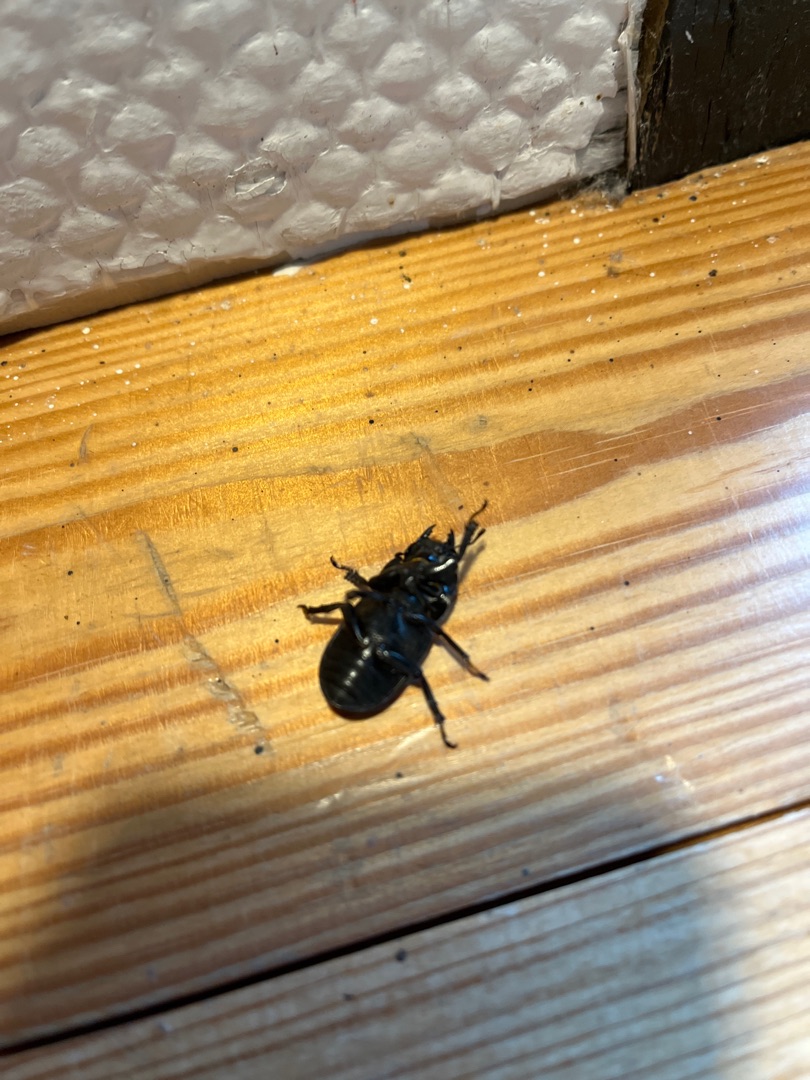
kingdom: Animalia
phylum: Arthropoda
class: Insecta
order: Coleoptera
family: Lucanidae
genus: Dorcus
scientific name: Dorcus parallelipipedus
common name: Bøghjort
